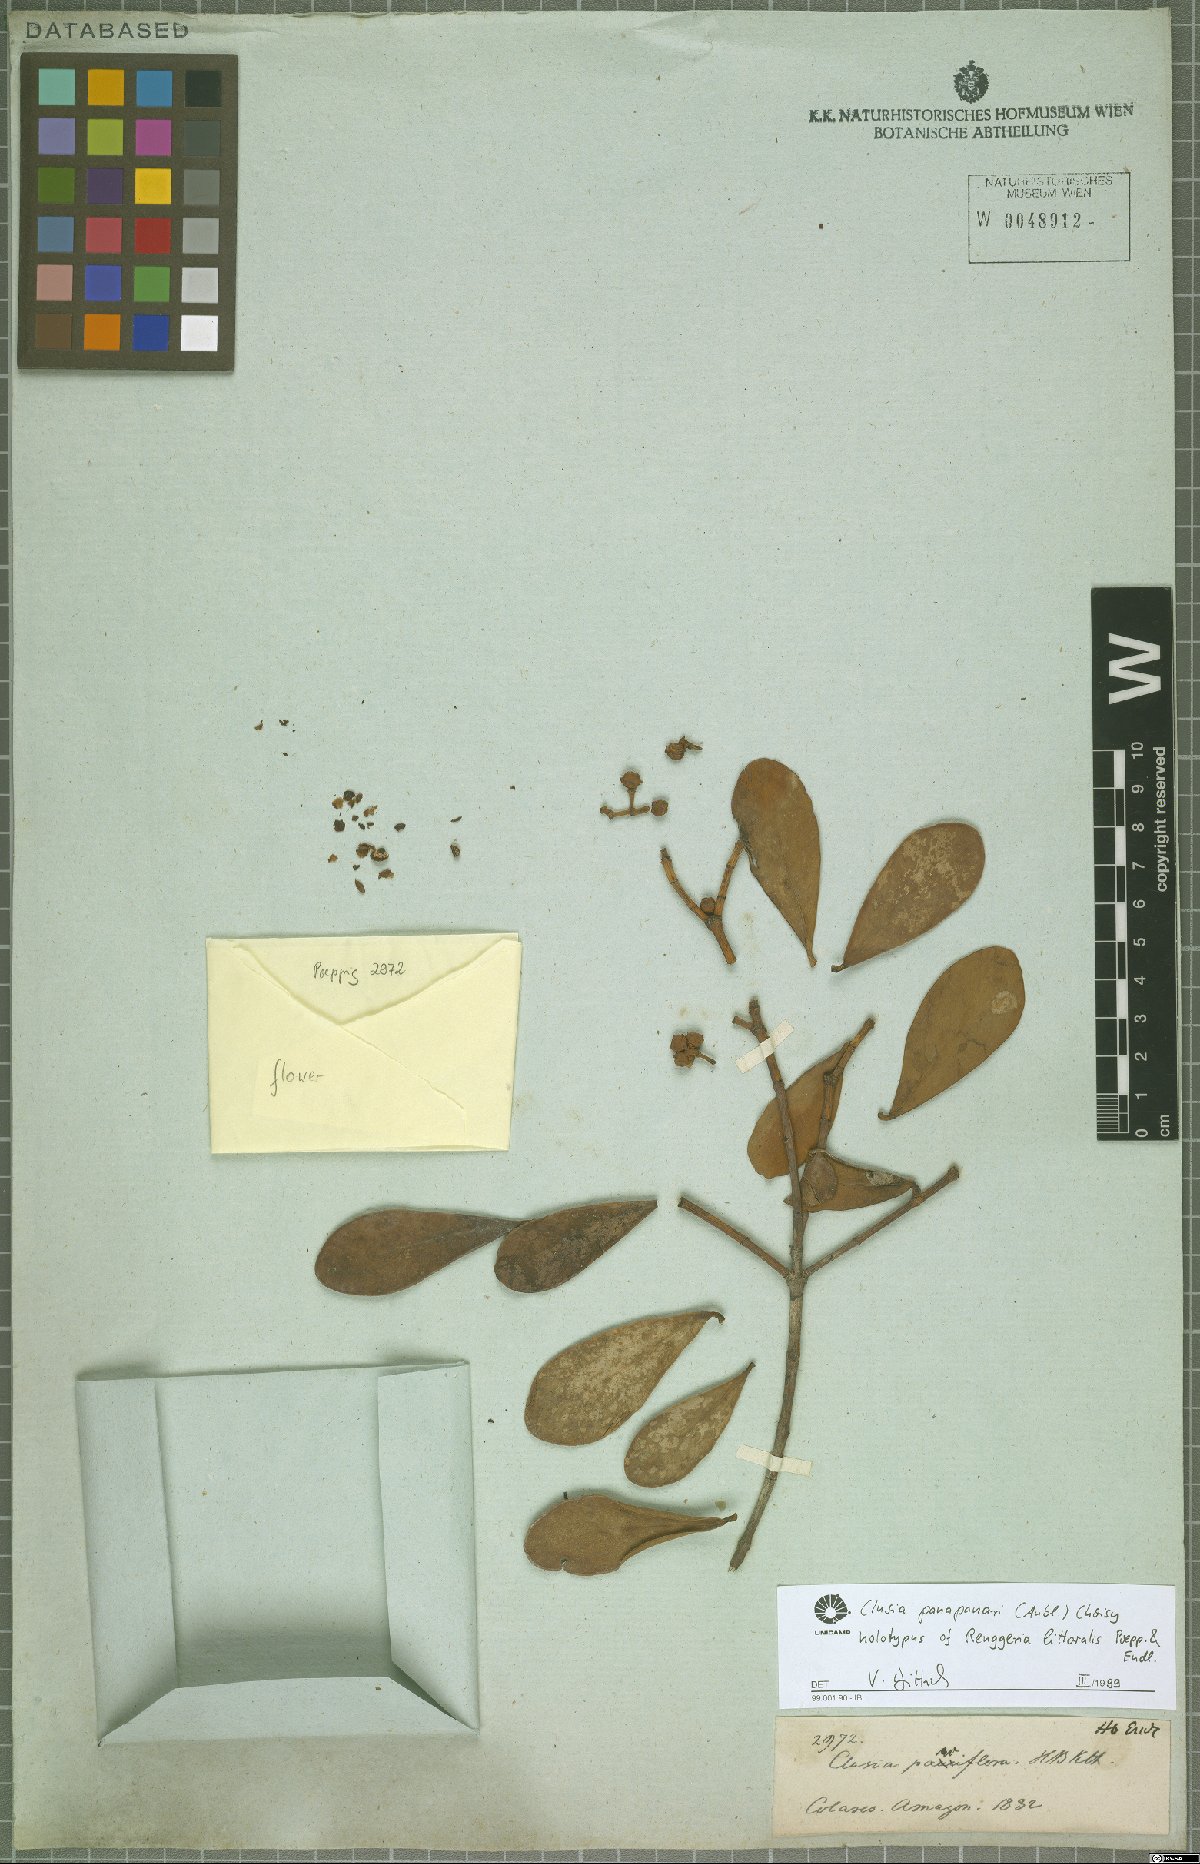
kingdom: Plantae
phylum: Tracheophyta
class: Magnoliopsida
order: Malpighiales
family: Clusiaceae
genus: Clusia
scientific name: Clusia panapanari
